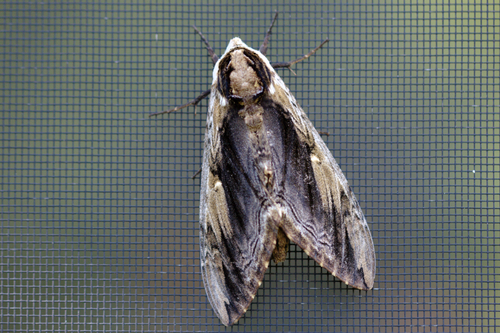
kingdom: Animalia
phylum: Arthropoda
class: Insecta
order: Lepidoptera
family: Sphingidae
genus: Ceratomia
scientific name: Ceratomia amyntor
